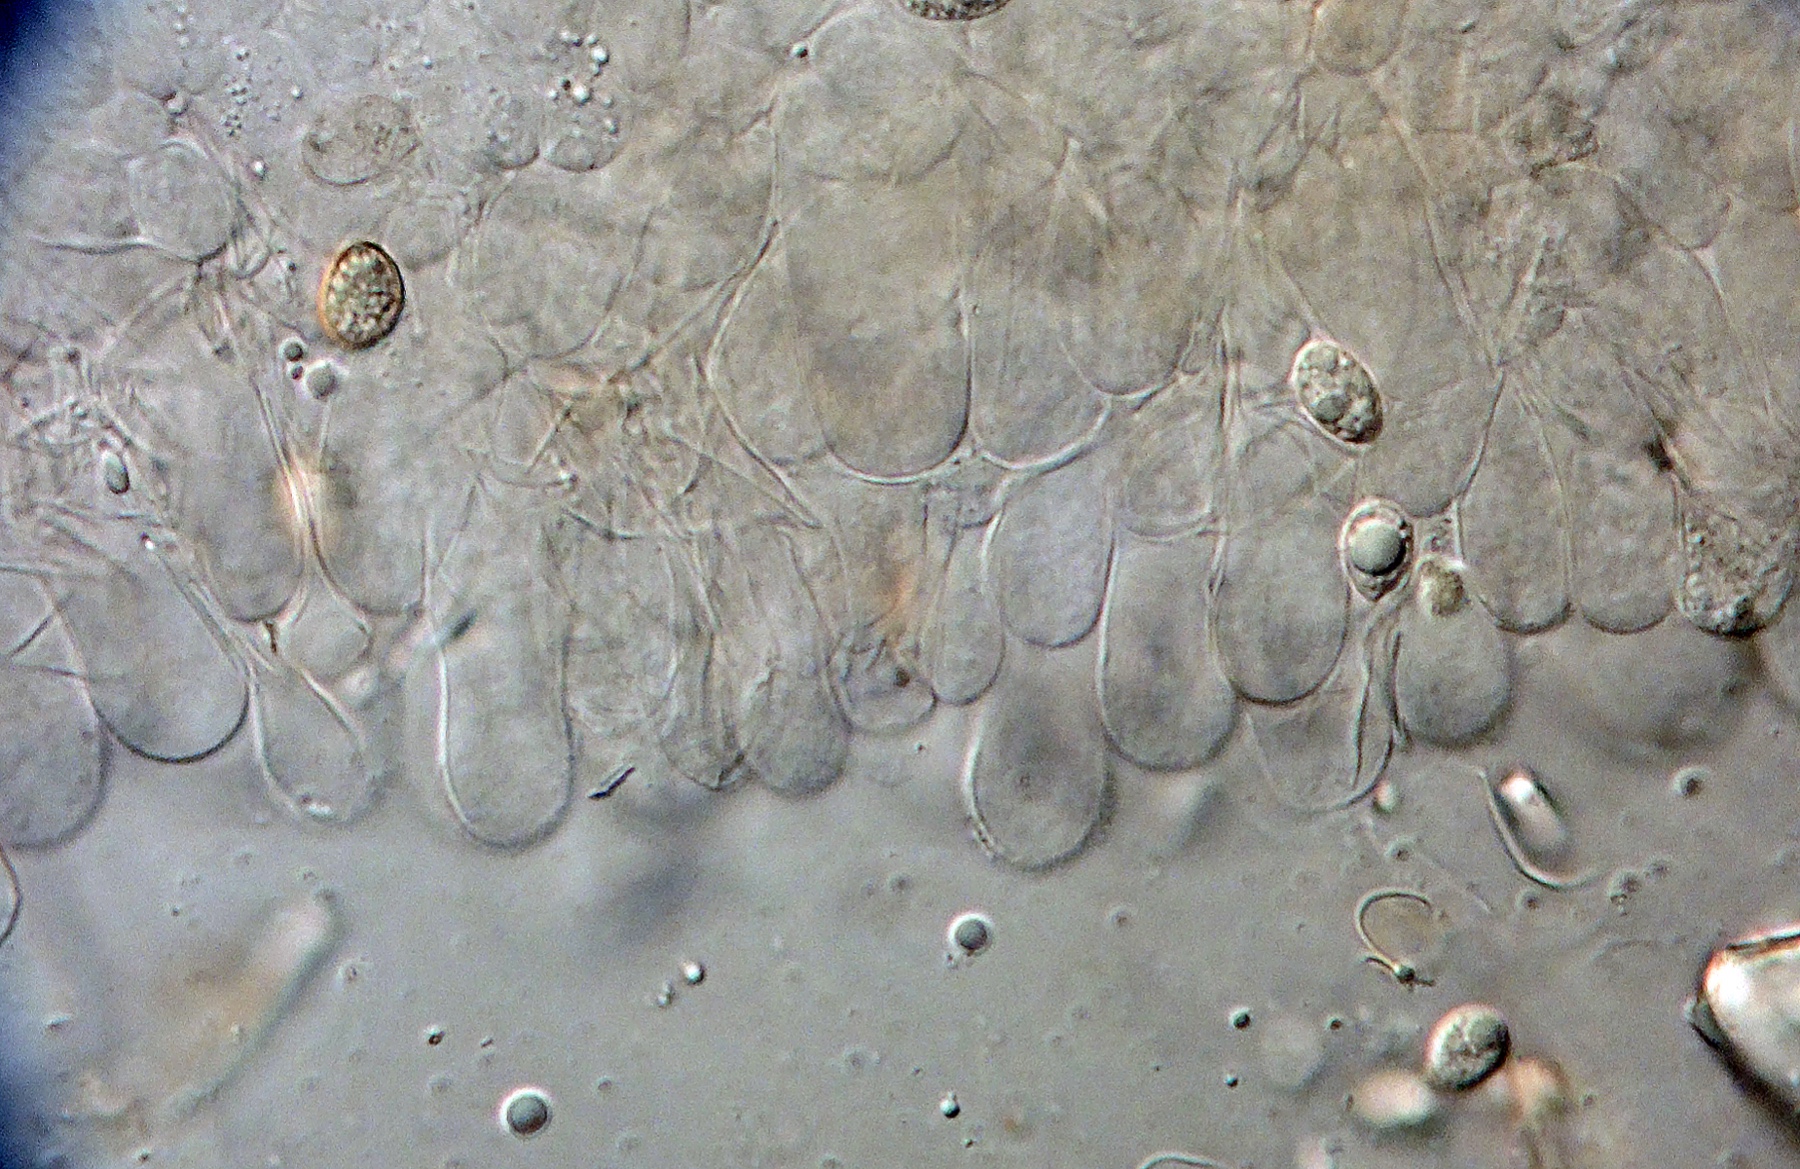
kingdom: Fungi
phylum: Basidiomycota
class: Agaricomycetes
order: Agaricales
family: Psathyrellaceae
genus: Coprinopsis
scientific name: Coprinopsis melanthina
